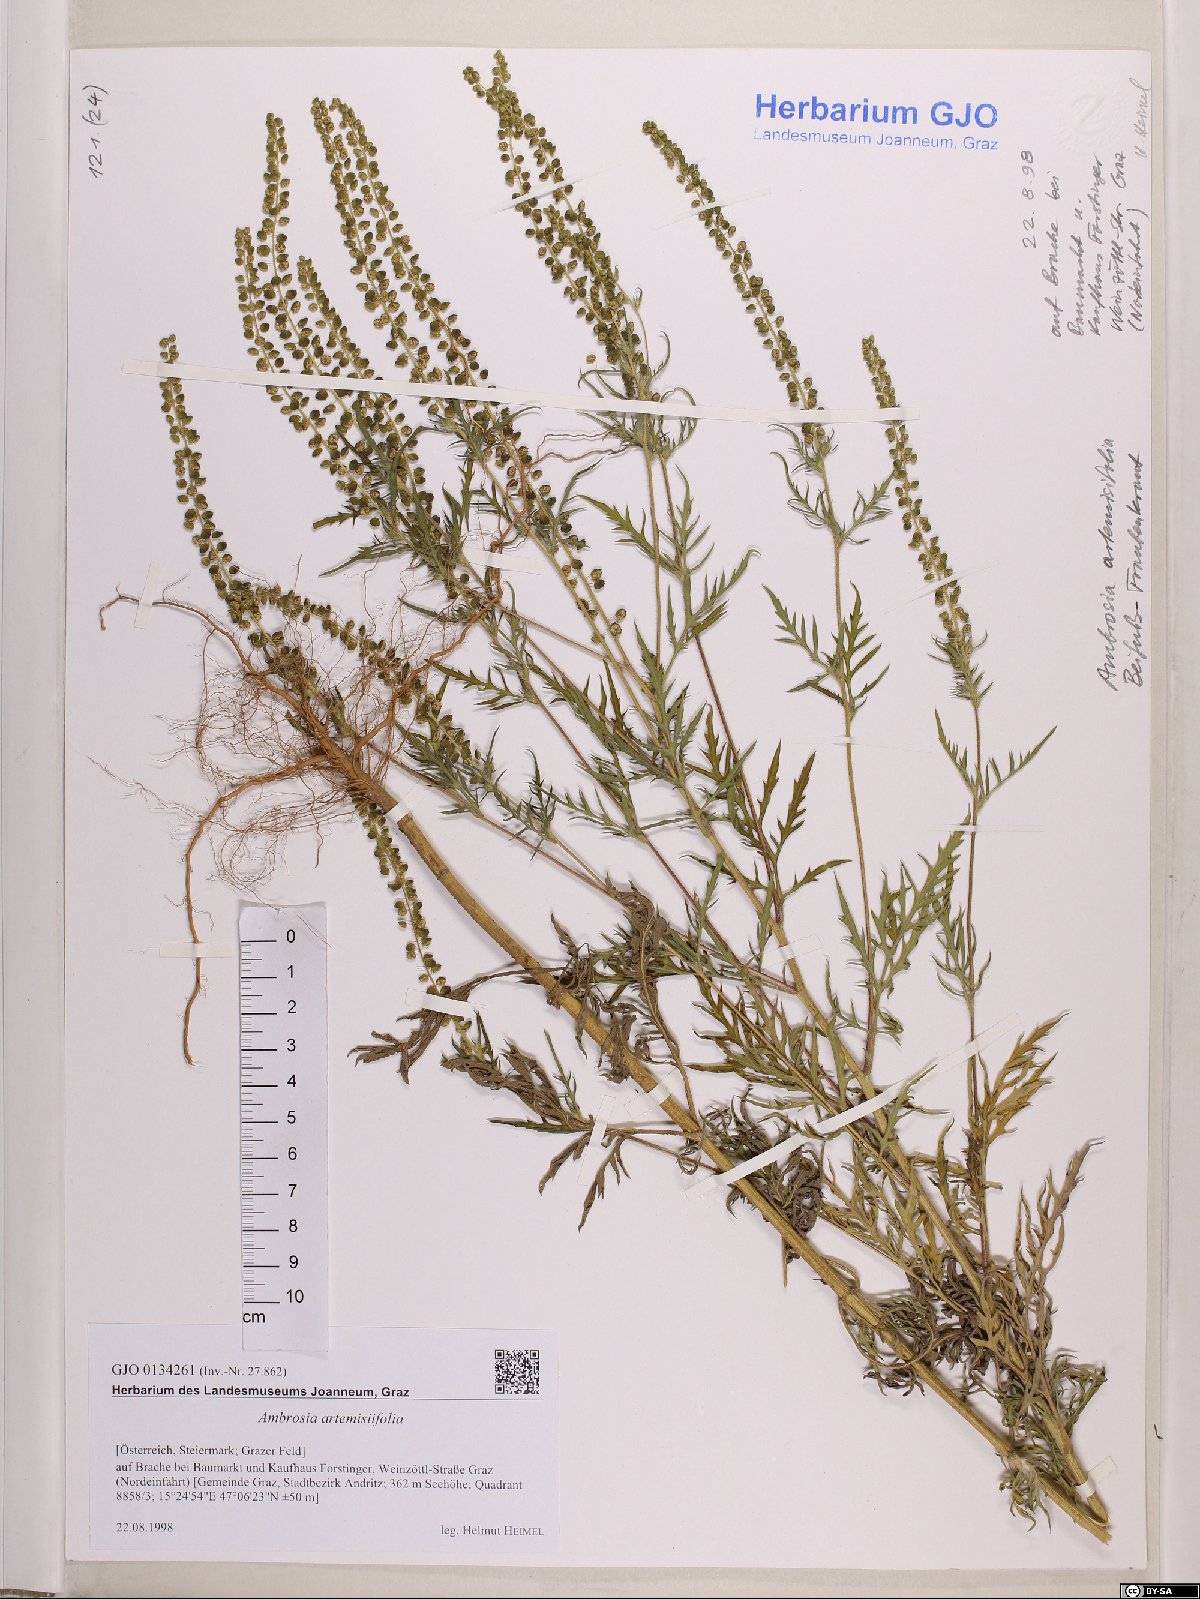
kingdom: Plantae
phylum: Tracheophyta
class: Magnoliopsida
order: Asterales
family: Asteraceae
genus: Ambrosia
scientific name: Ambrosia artemisiifolia
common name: Annual ragweed
